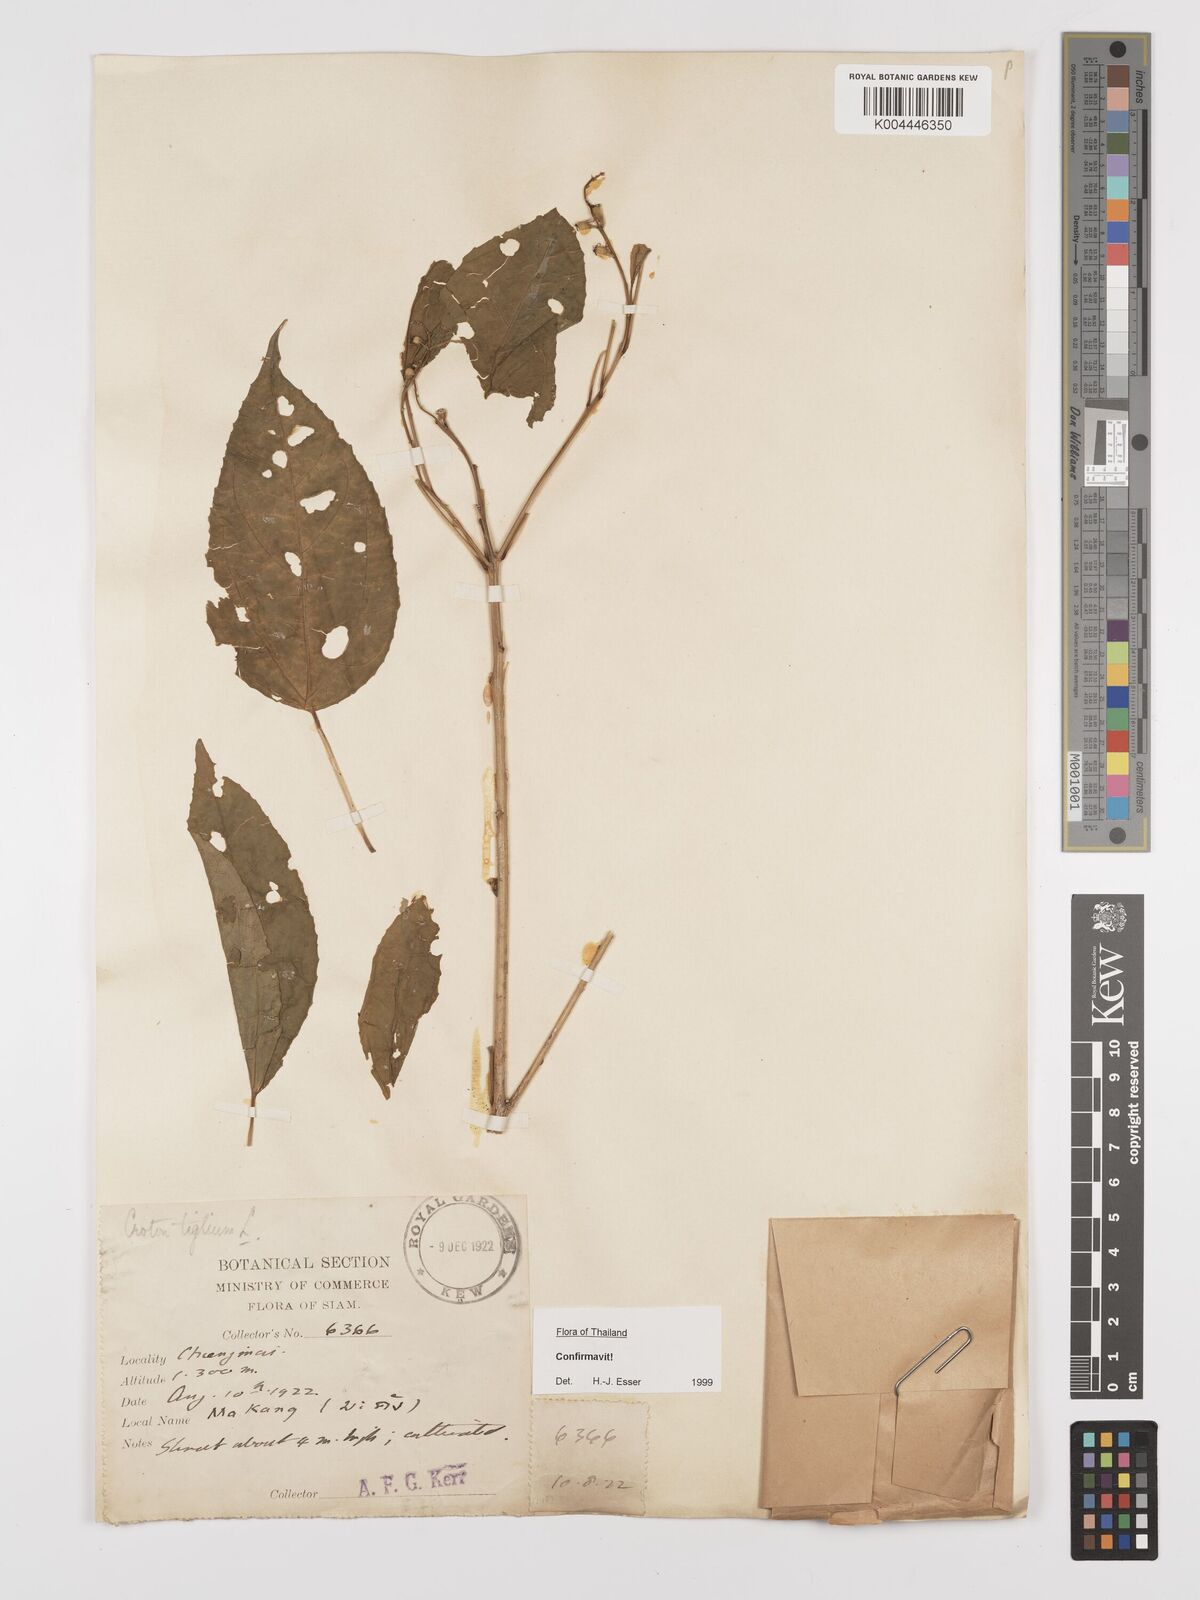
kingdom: Plantae
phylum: Tracheophyta
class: Magnoliopsida
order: Malpighiales
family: Euphorbiaceae
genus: Croton
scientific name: Croton tiglium
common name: Purging croton
